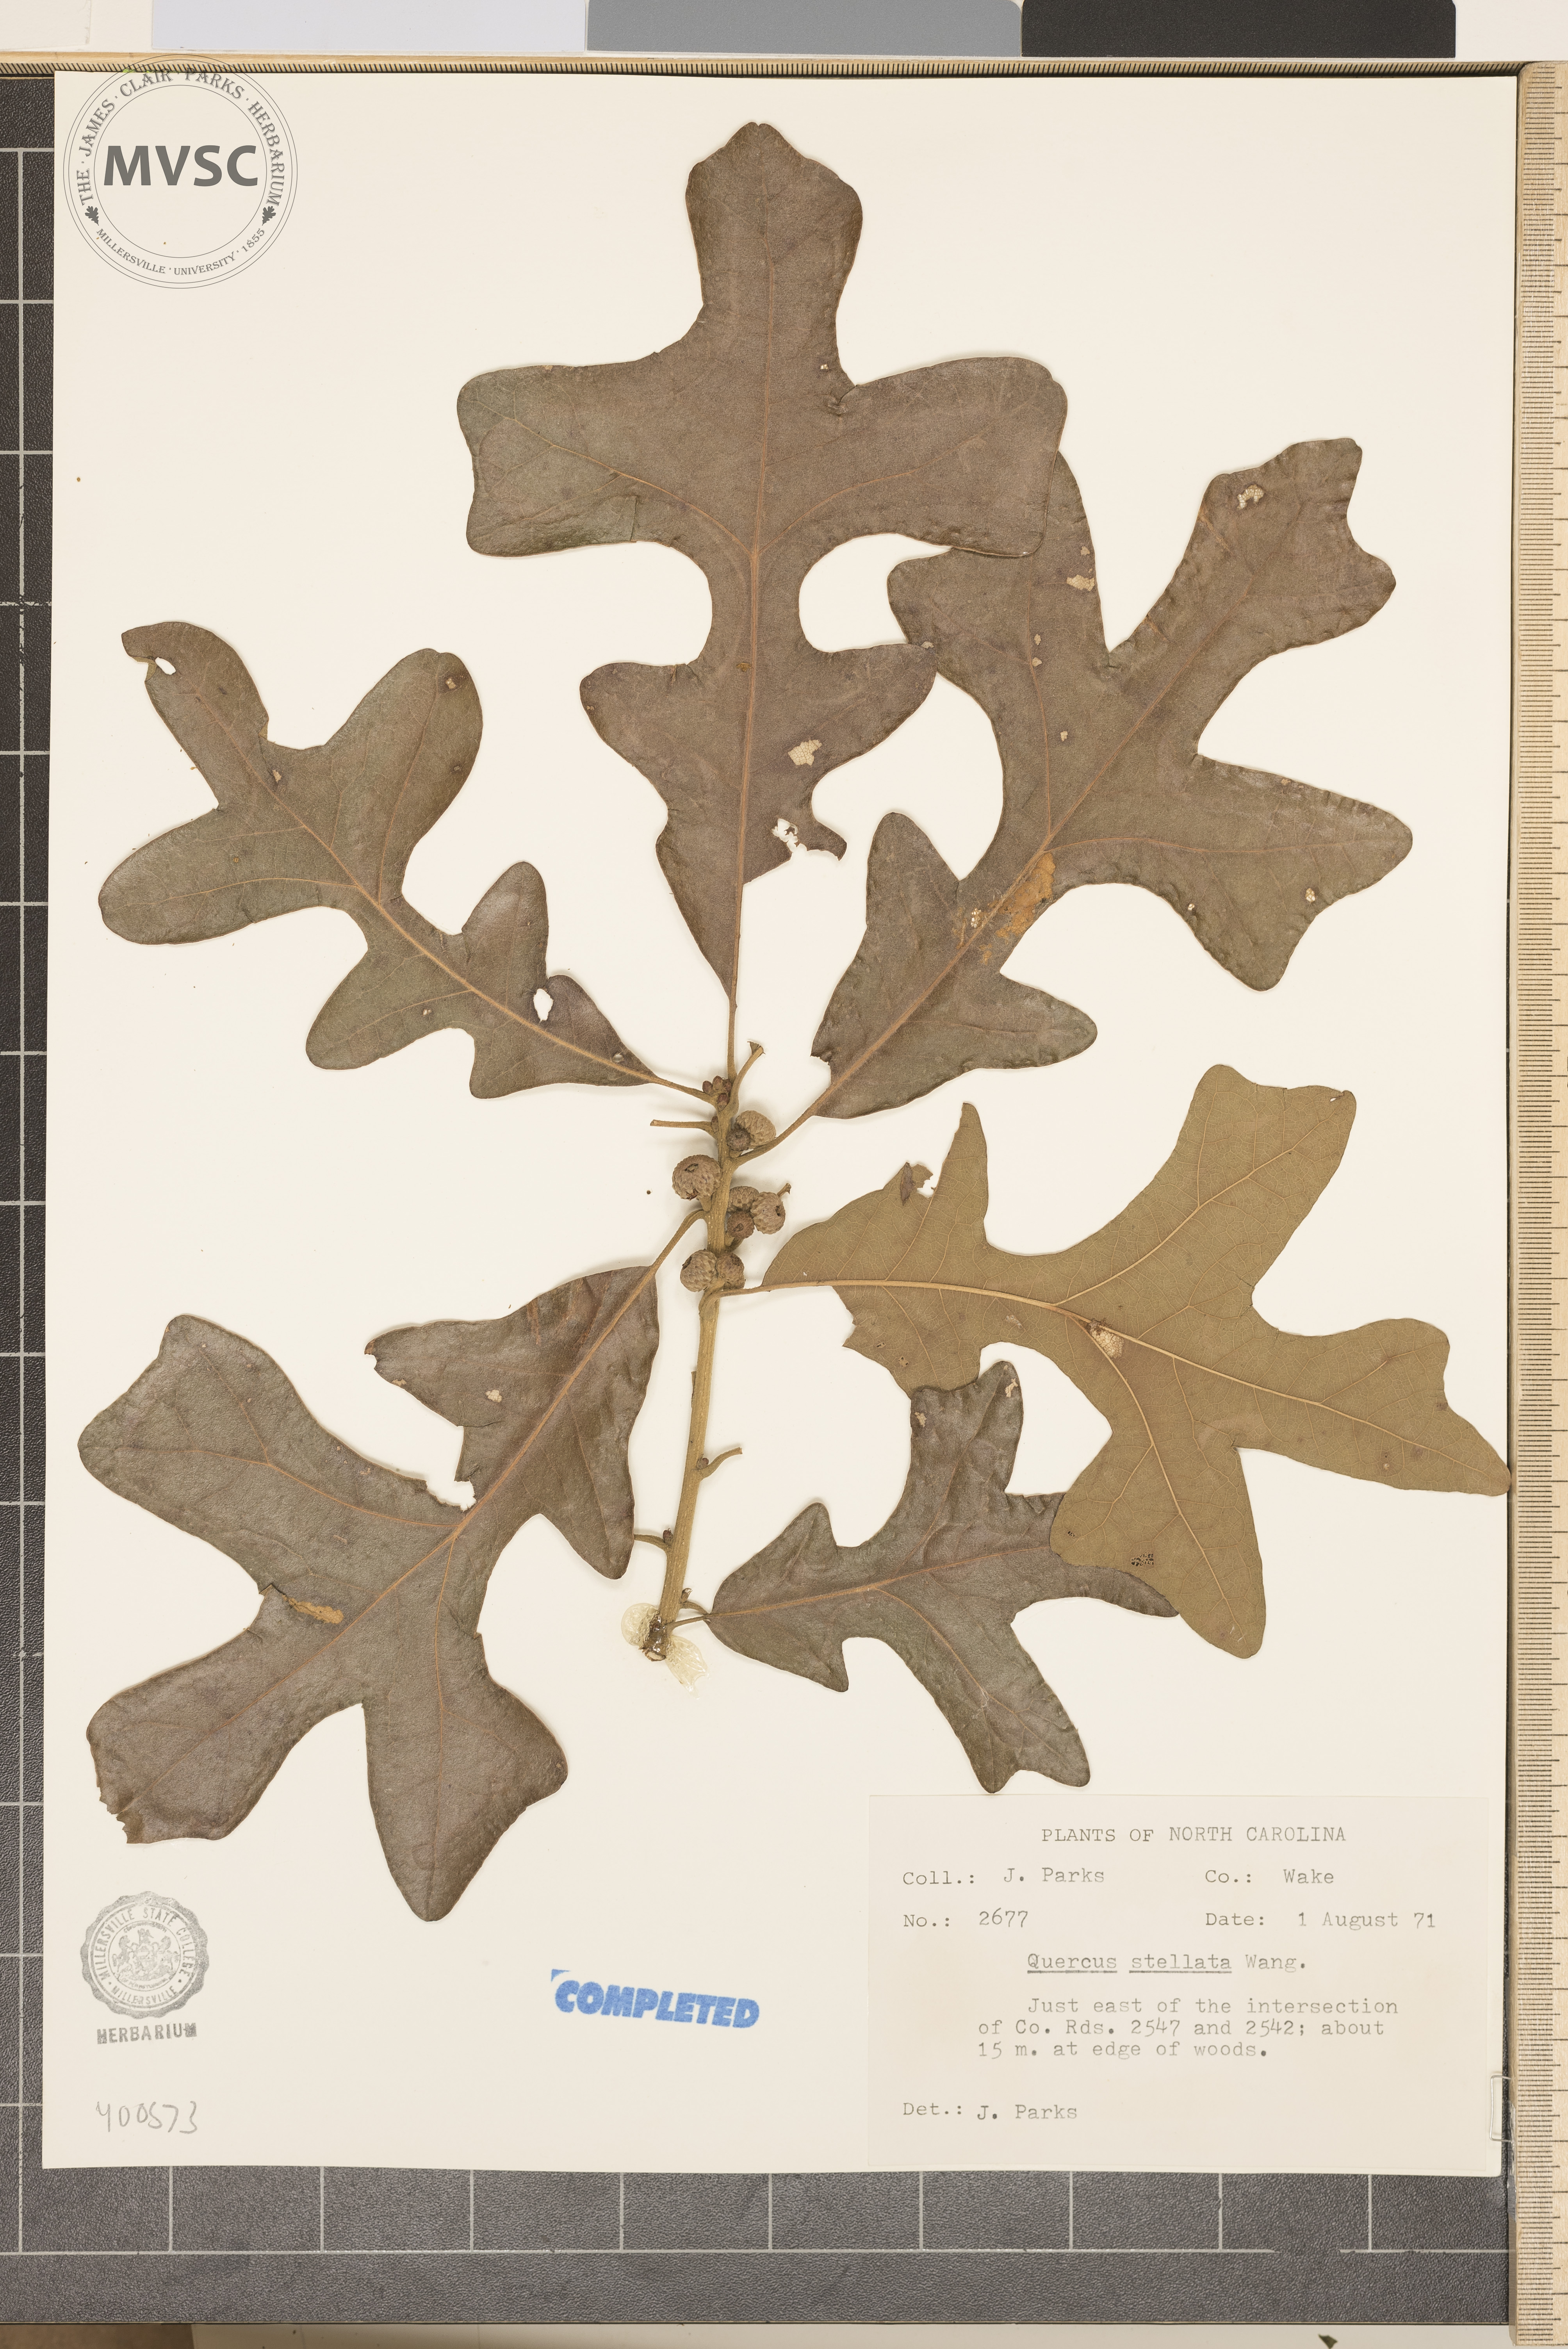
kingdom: Plantae
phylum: Tracheophyta
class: Magnoliopsida
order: Fagales
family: Fagaceae
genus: Quercus
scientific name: Quercus stellata
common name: Post oak
